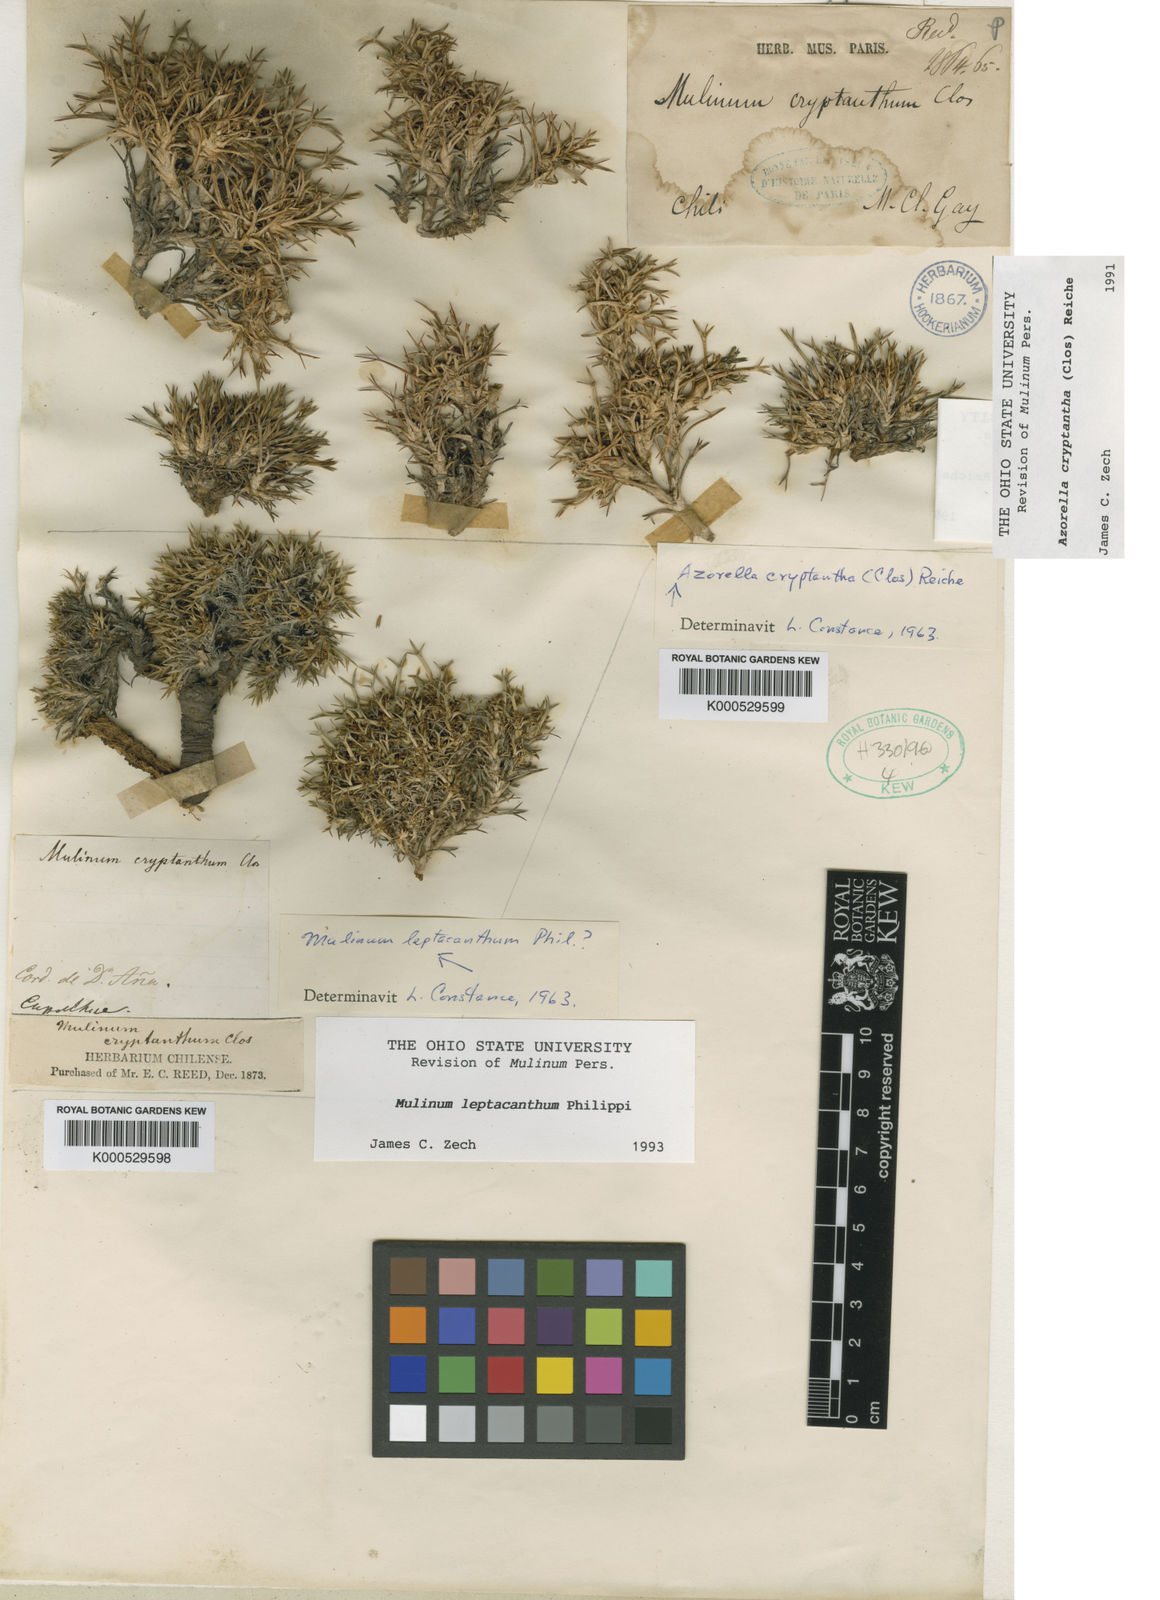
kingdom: Plantae
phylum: Tracheophyta
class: Magnoliopsida
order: Apiales
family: Apiaceae
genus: Azorella
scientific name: Azorella cryptantha
